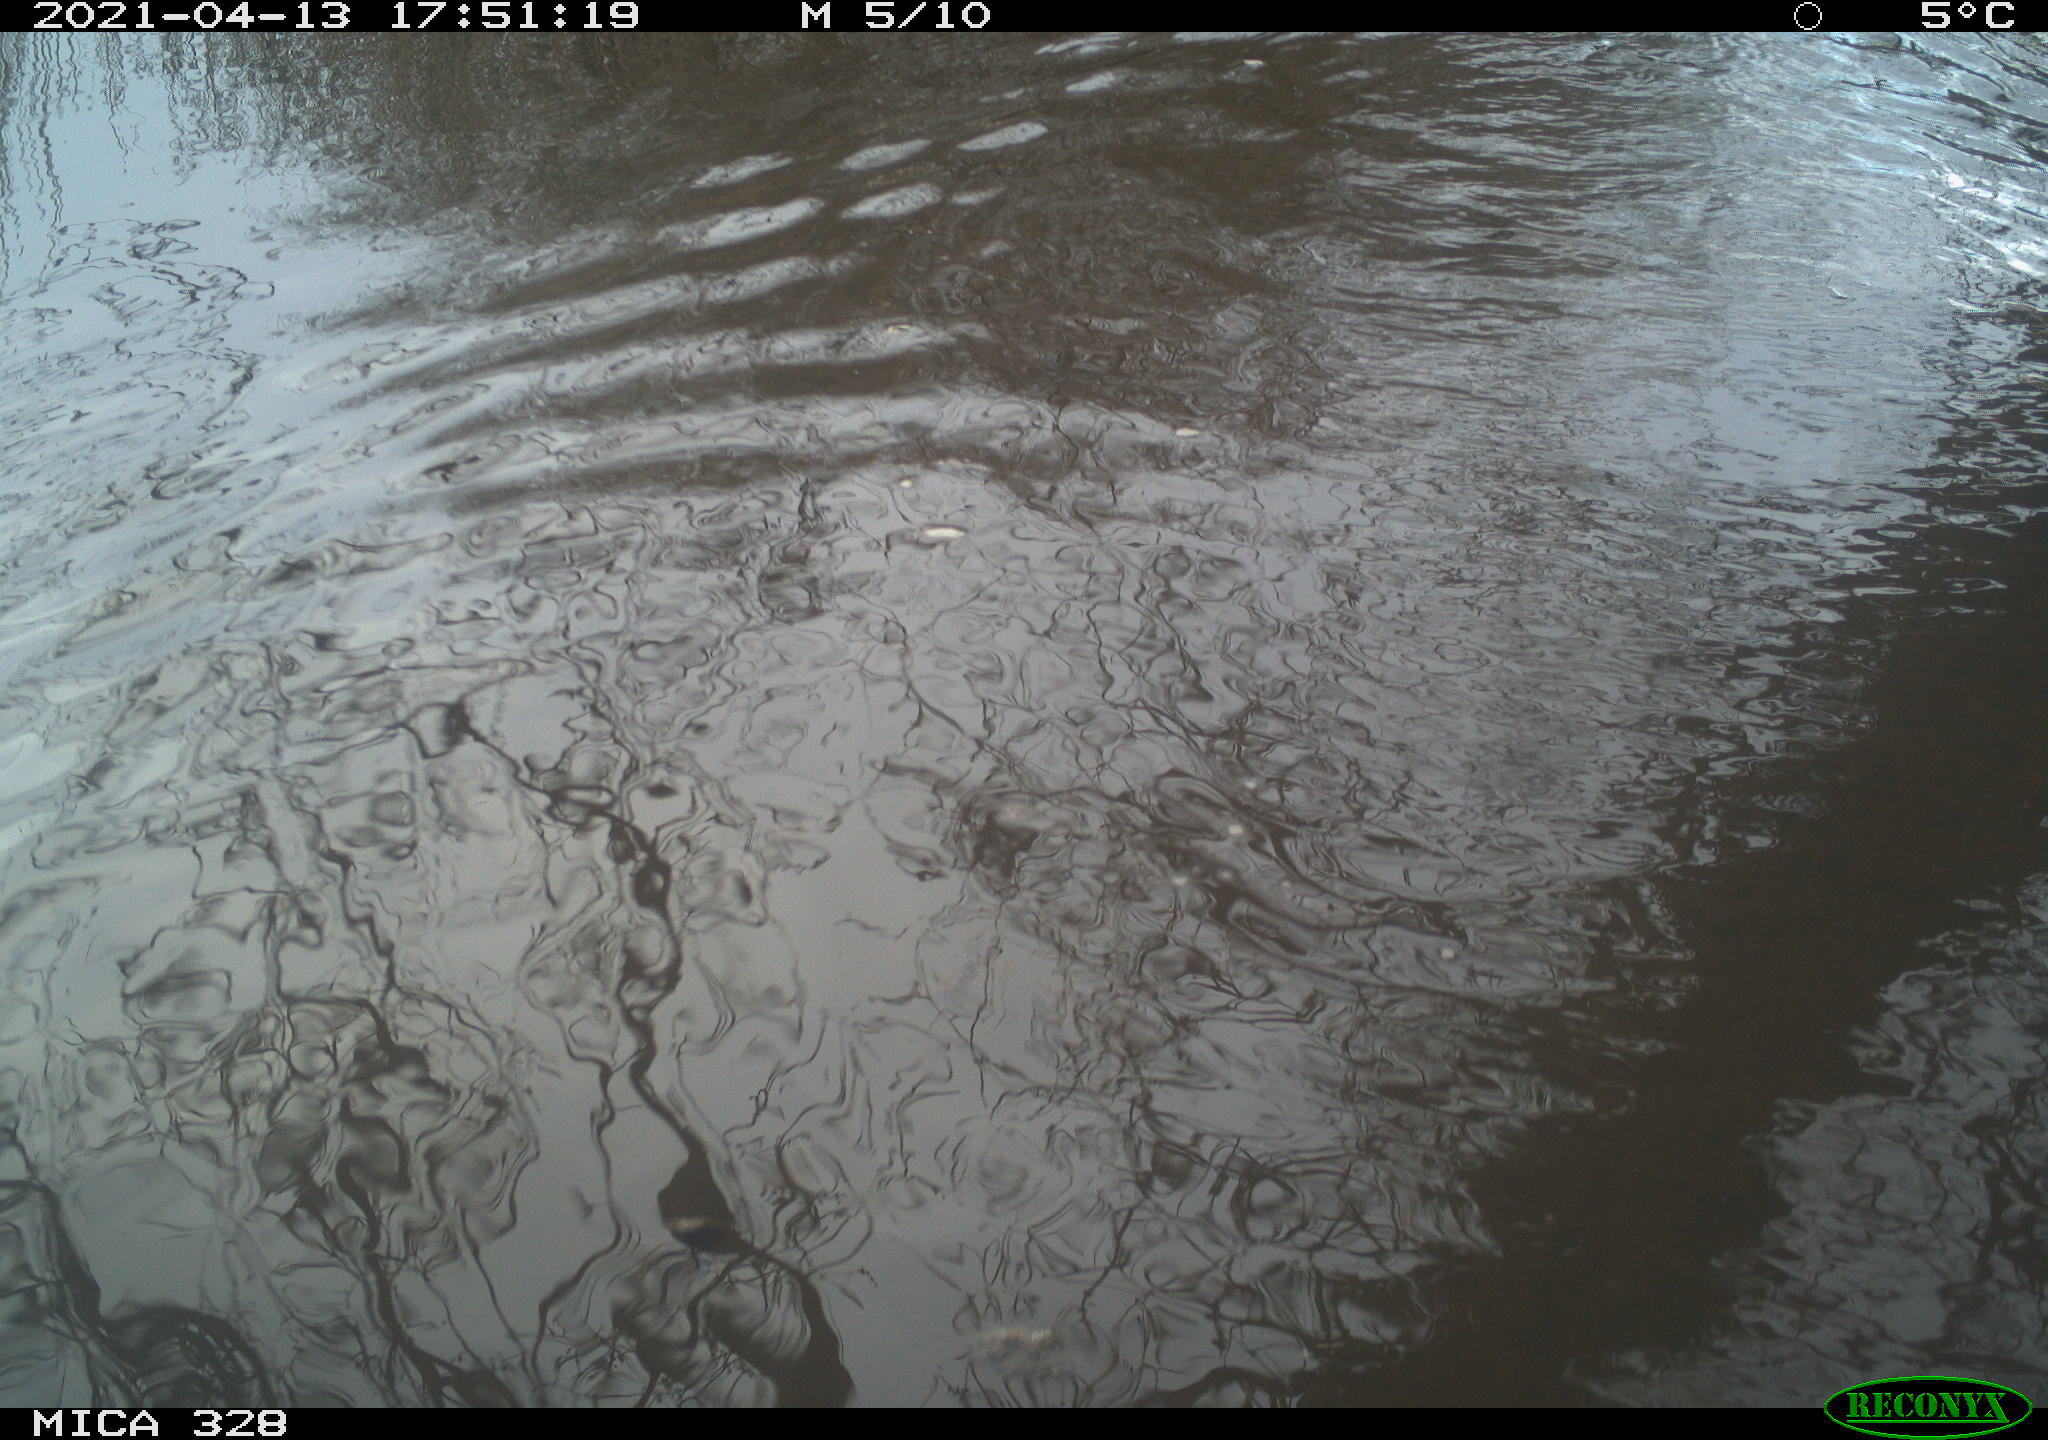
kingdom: Animalia
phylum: Chordata
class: Mammalia
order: Rodentia
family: Cricetidae
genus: Ondatra
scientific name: Ondatra zibethicus
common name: Muskrat
